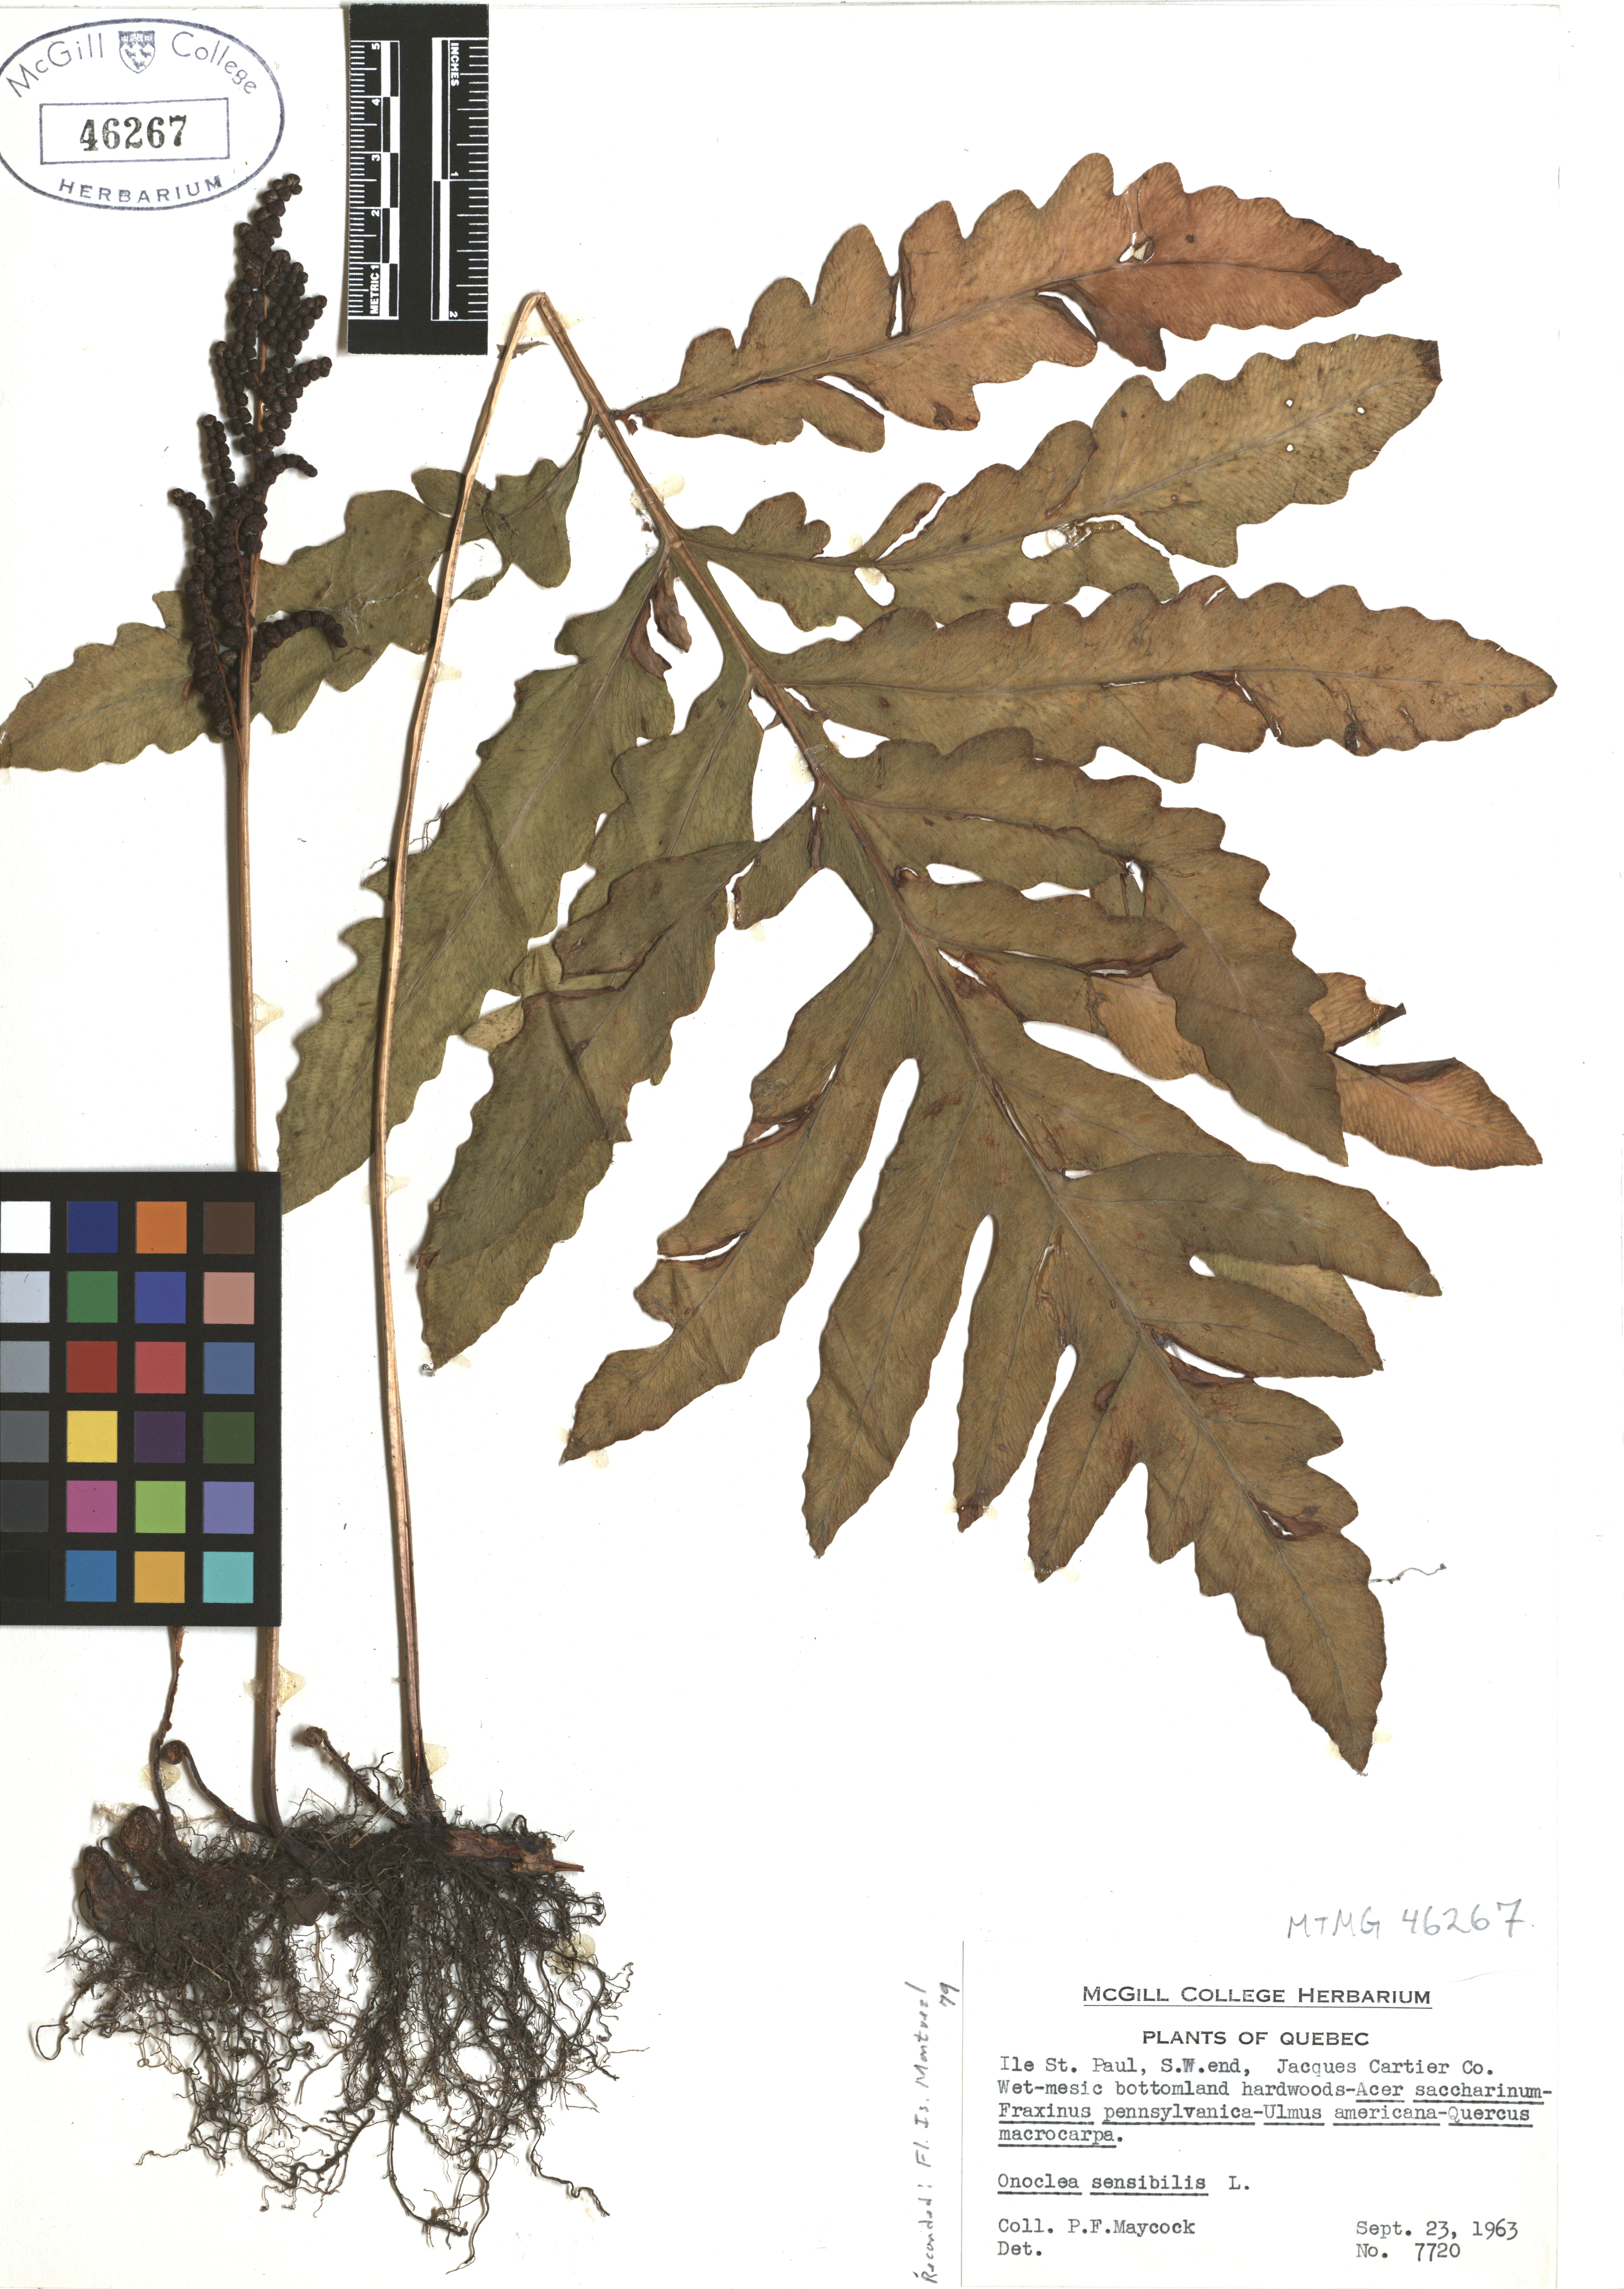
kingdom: Plantae
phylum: Tracheophyta
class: Polypodiopsida
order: Polypodiales
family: Onocleaceae
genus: Onoclea
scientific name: Onoclea sensibilis
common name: Sensitive fern
